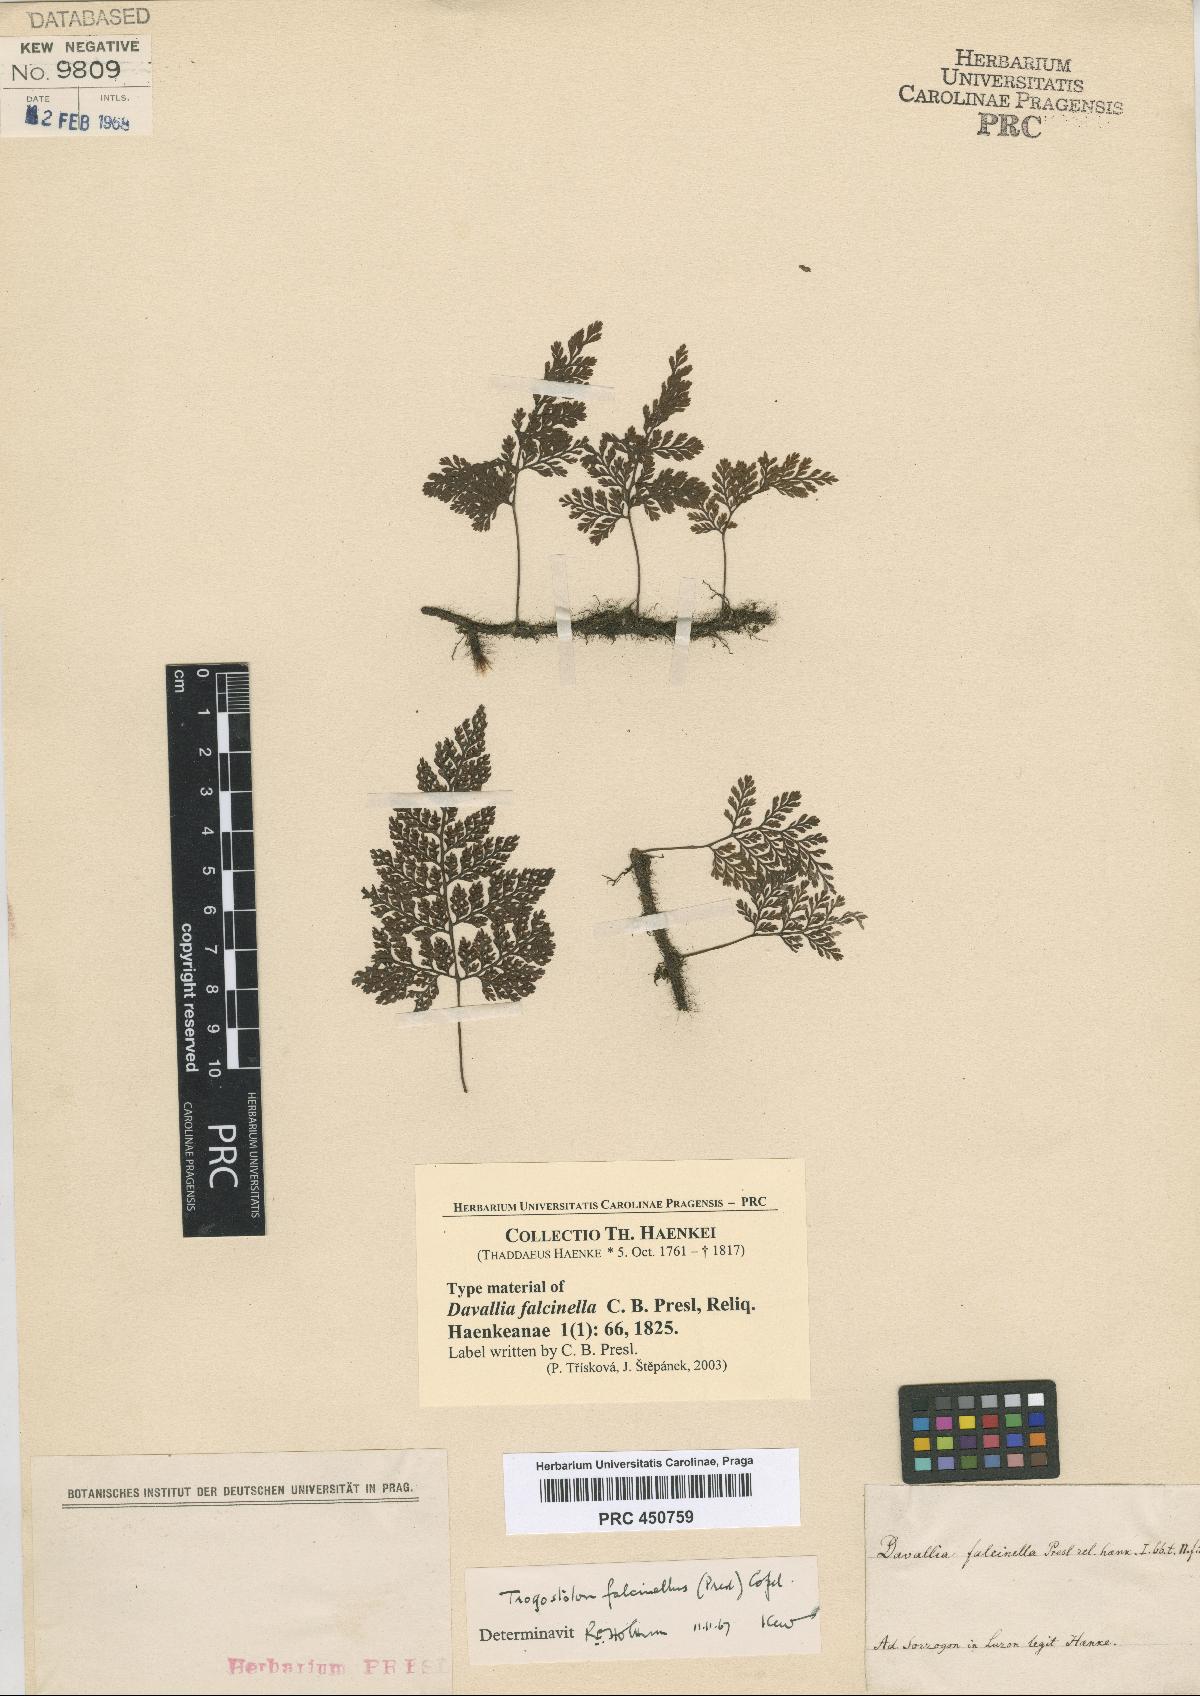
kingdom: Plantae
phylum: Tracheophyta
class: Polypodiopsida
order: Polypodiales
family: Davalliaceae
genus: Davallia
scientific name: Davallia falcinella
